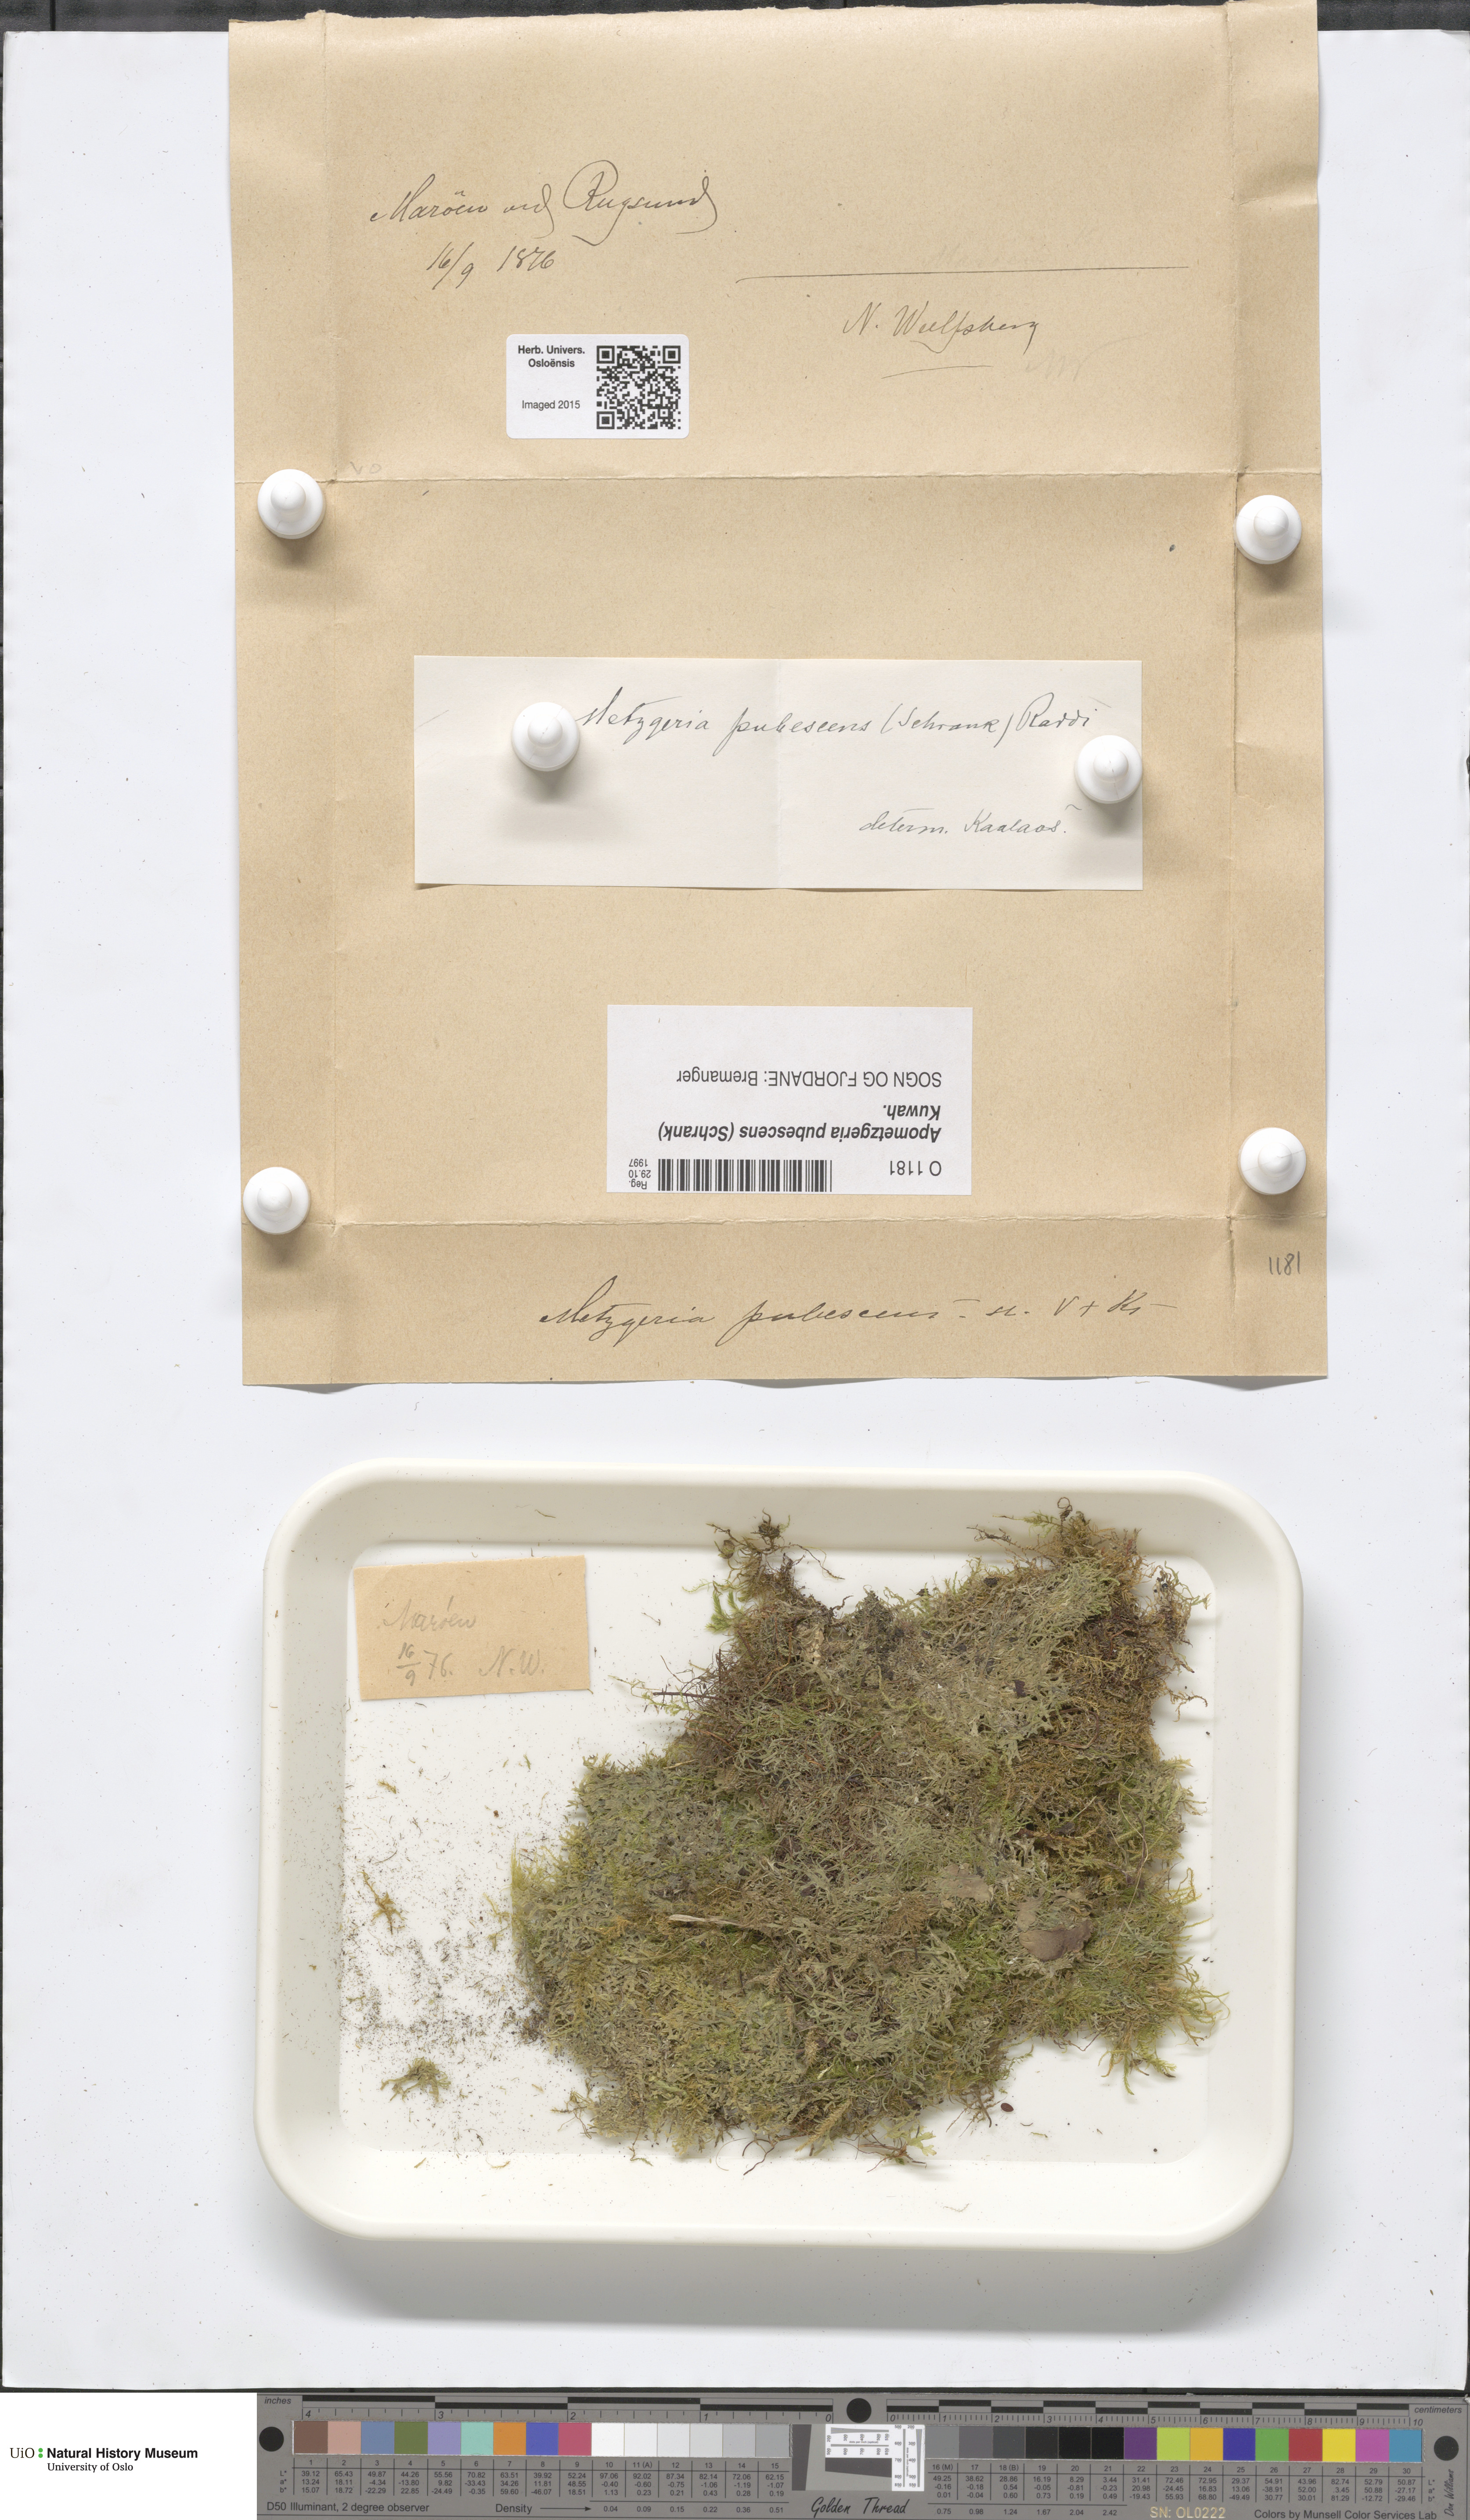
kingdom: Plantae
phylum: Marchantiophyta
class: Jungermanniopsida
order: Metzgeriales
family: Metzgeriaceae
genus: Metzgeria
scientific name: Metzgeria pubescens
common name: Downy veilwort
